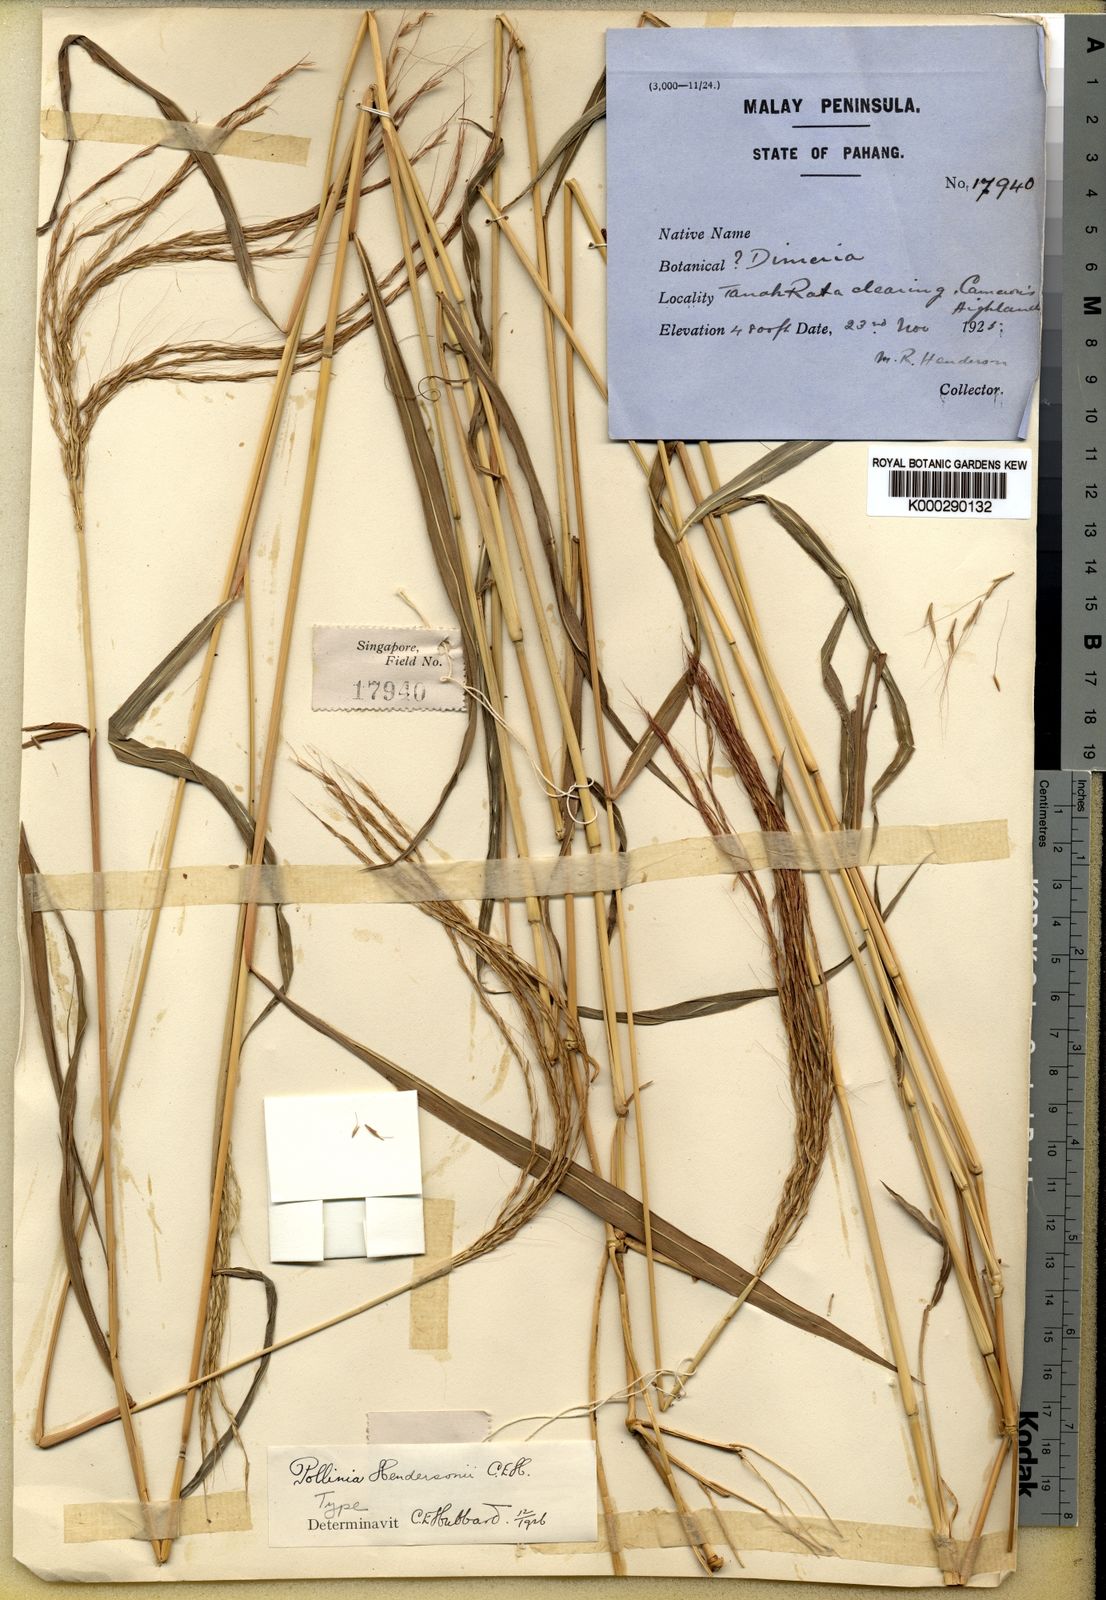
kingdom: Plantae
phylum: Tracheophyta
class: Liliopsida
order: Poales
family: Poaceae
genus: Microstegium
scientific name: Microstegium geniculatum
